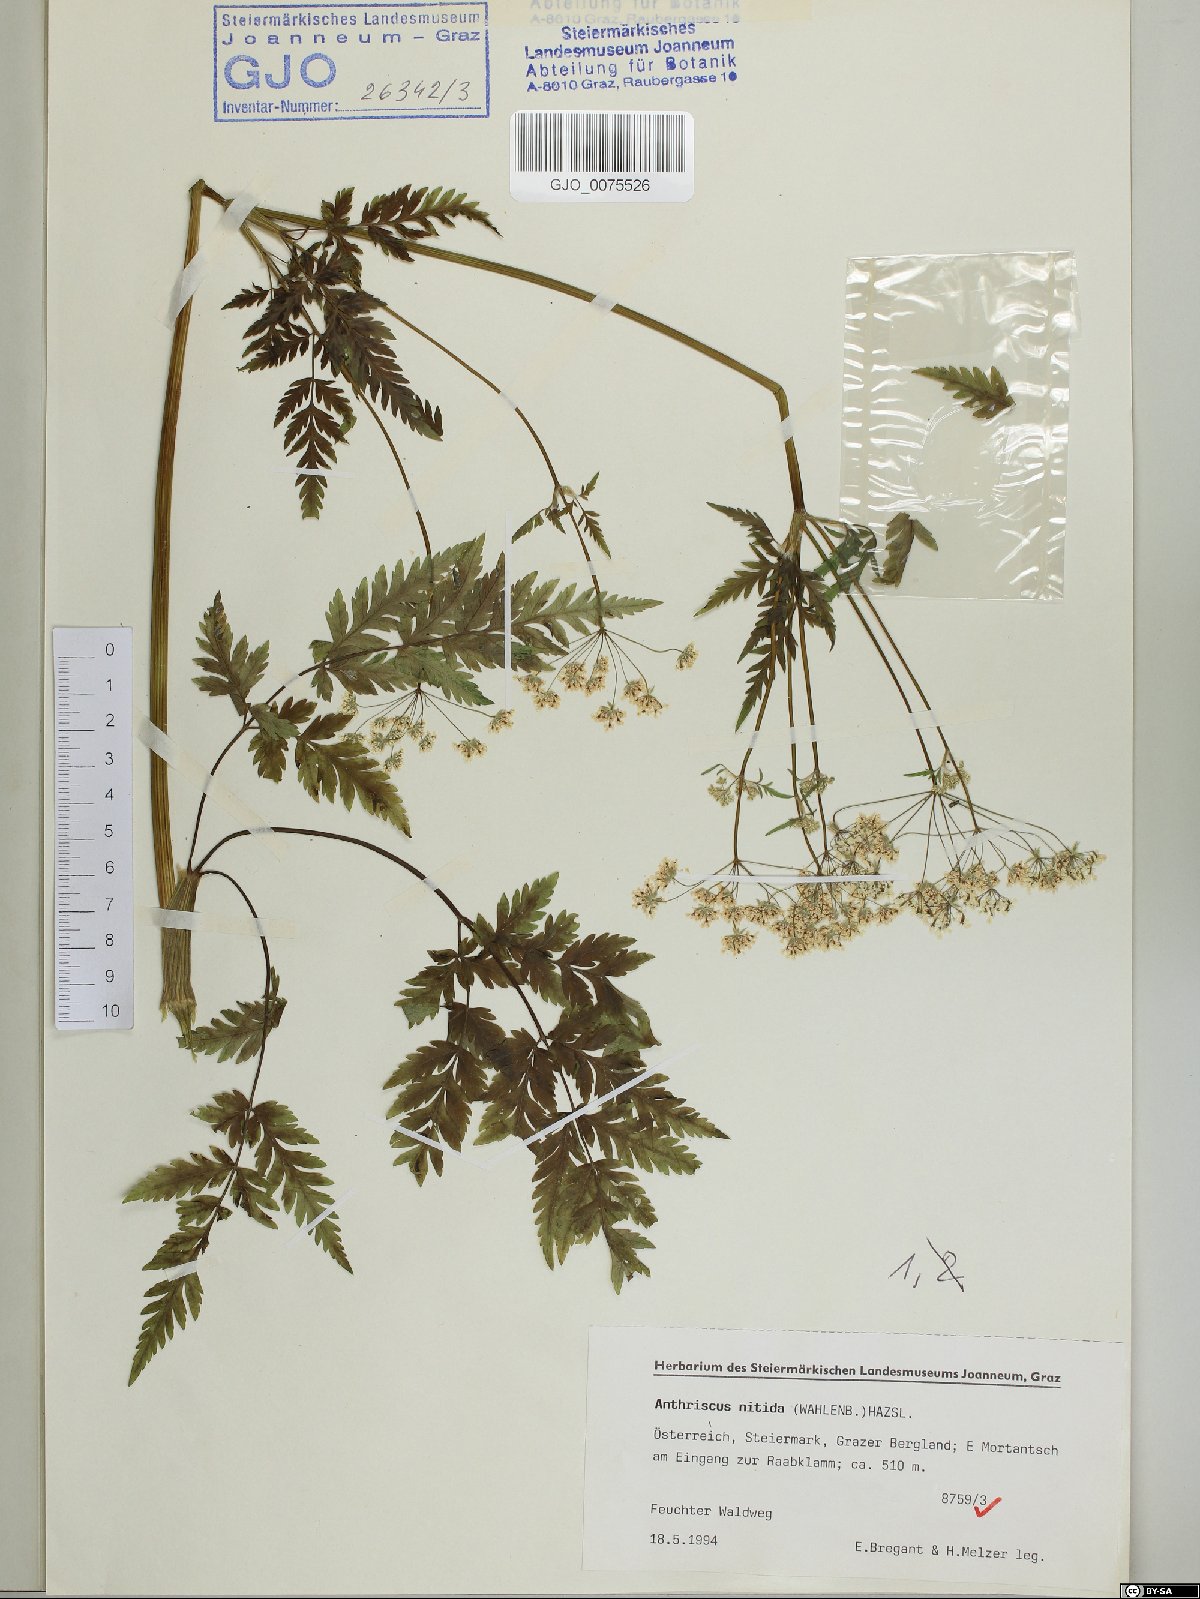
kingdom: Plantae
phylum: Tracheophyta
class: Magnoliopsida
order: Apiales
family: Apiaceae
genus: Anthriscus
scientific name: Anthriscus nitida
